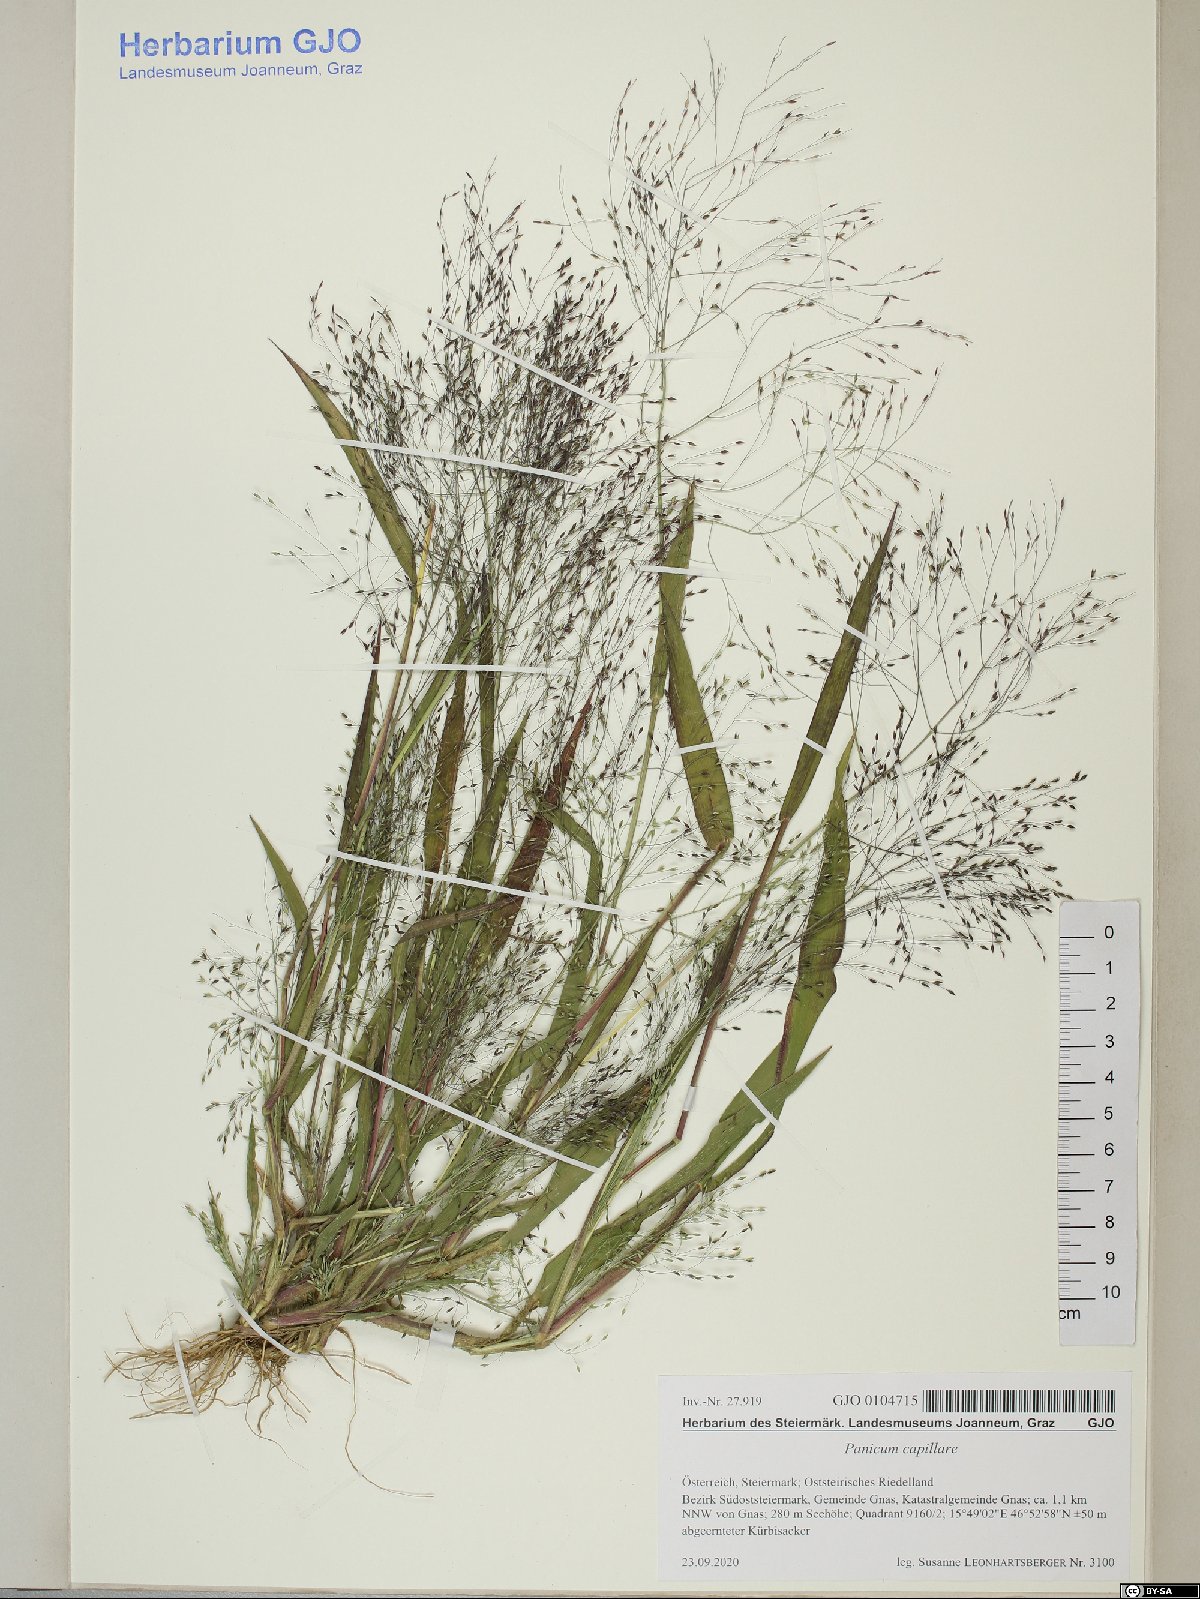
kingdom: Plantae
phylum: Tracheophyta
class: Liliopsida
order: Poales
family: Poaceae
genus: Panicum
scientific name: Panicum capillare
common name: Witch-grass
